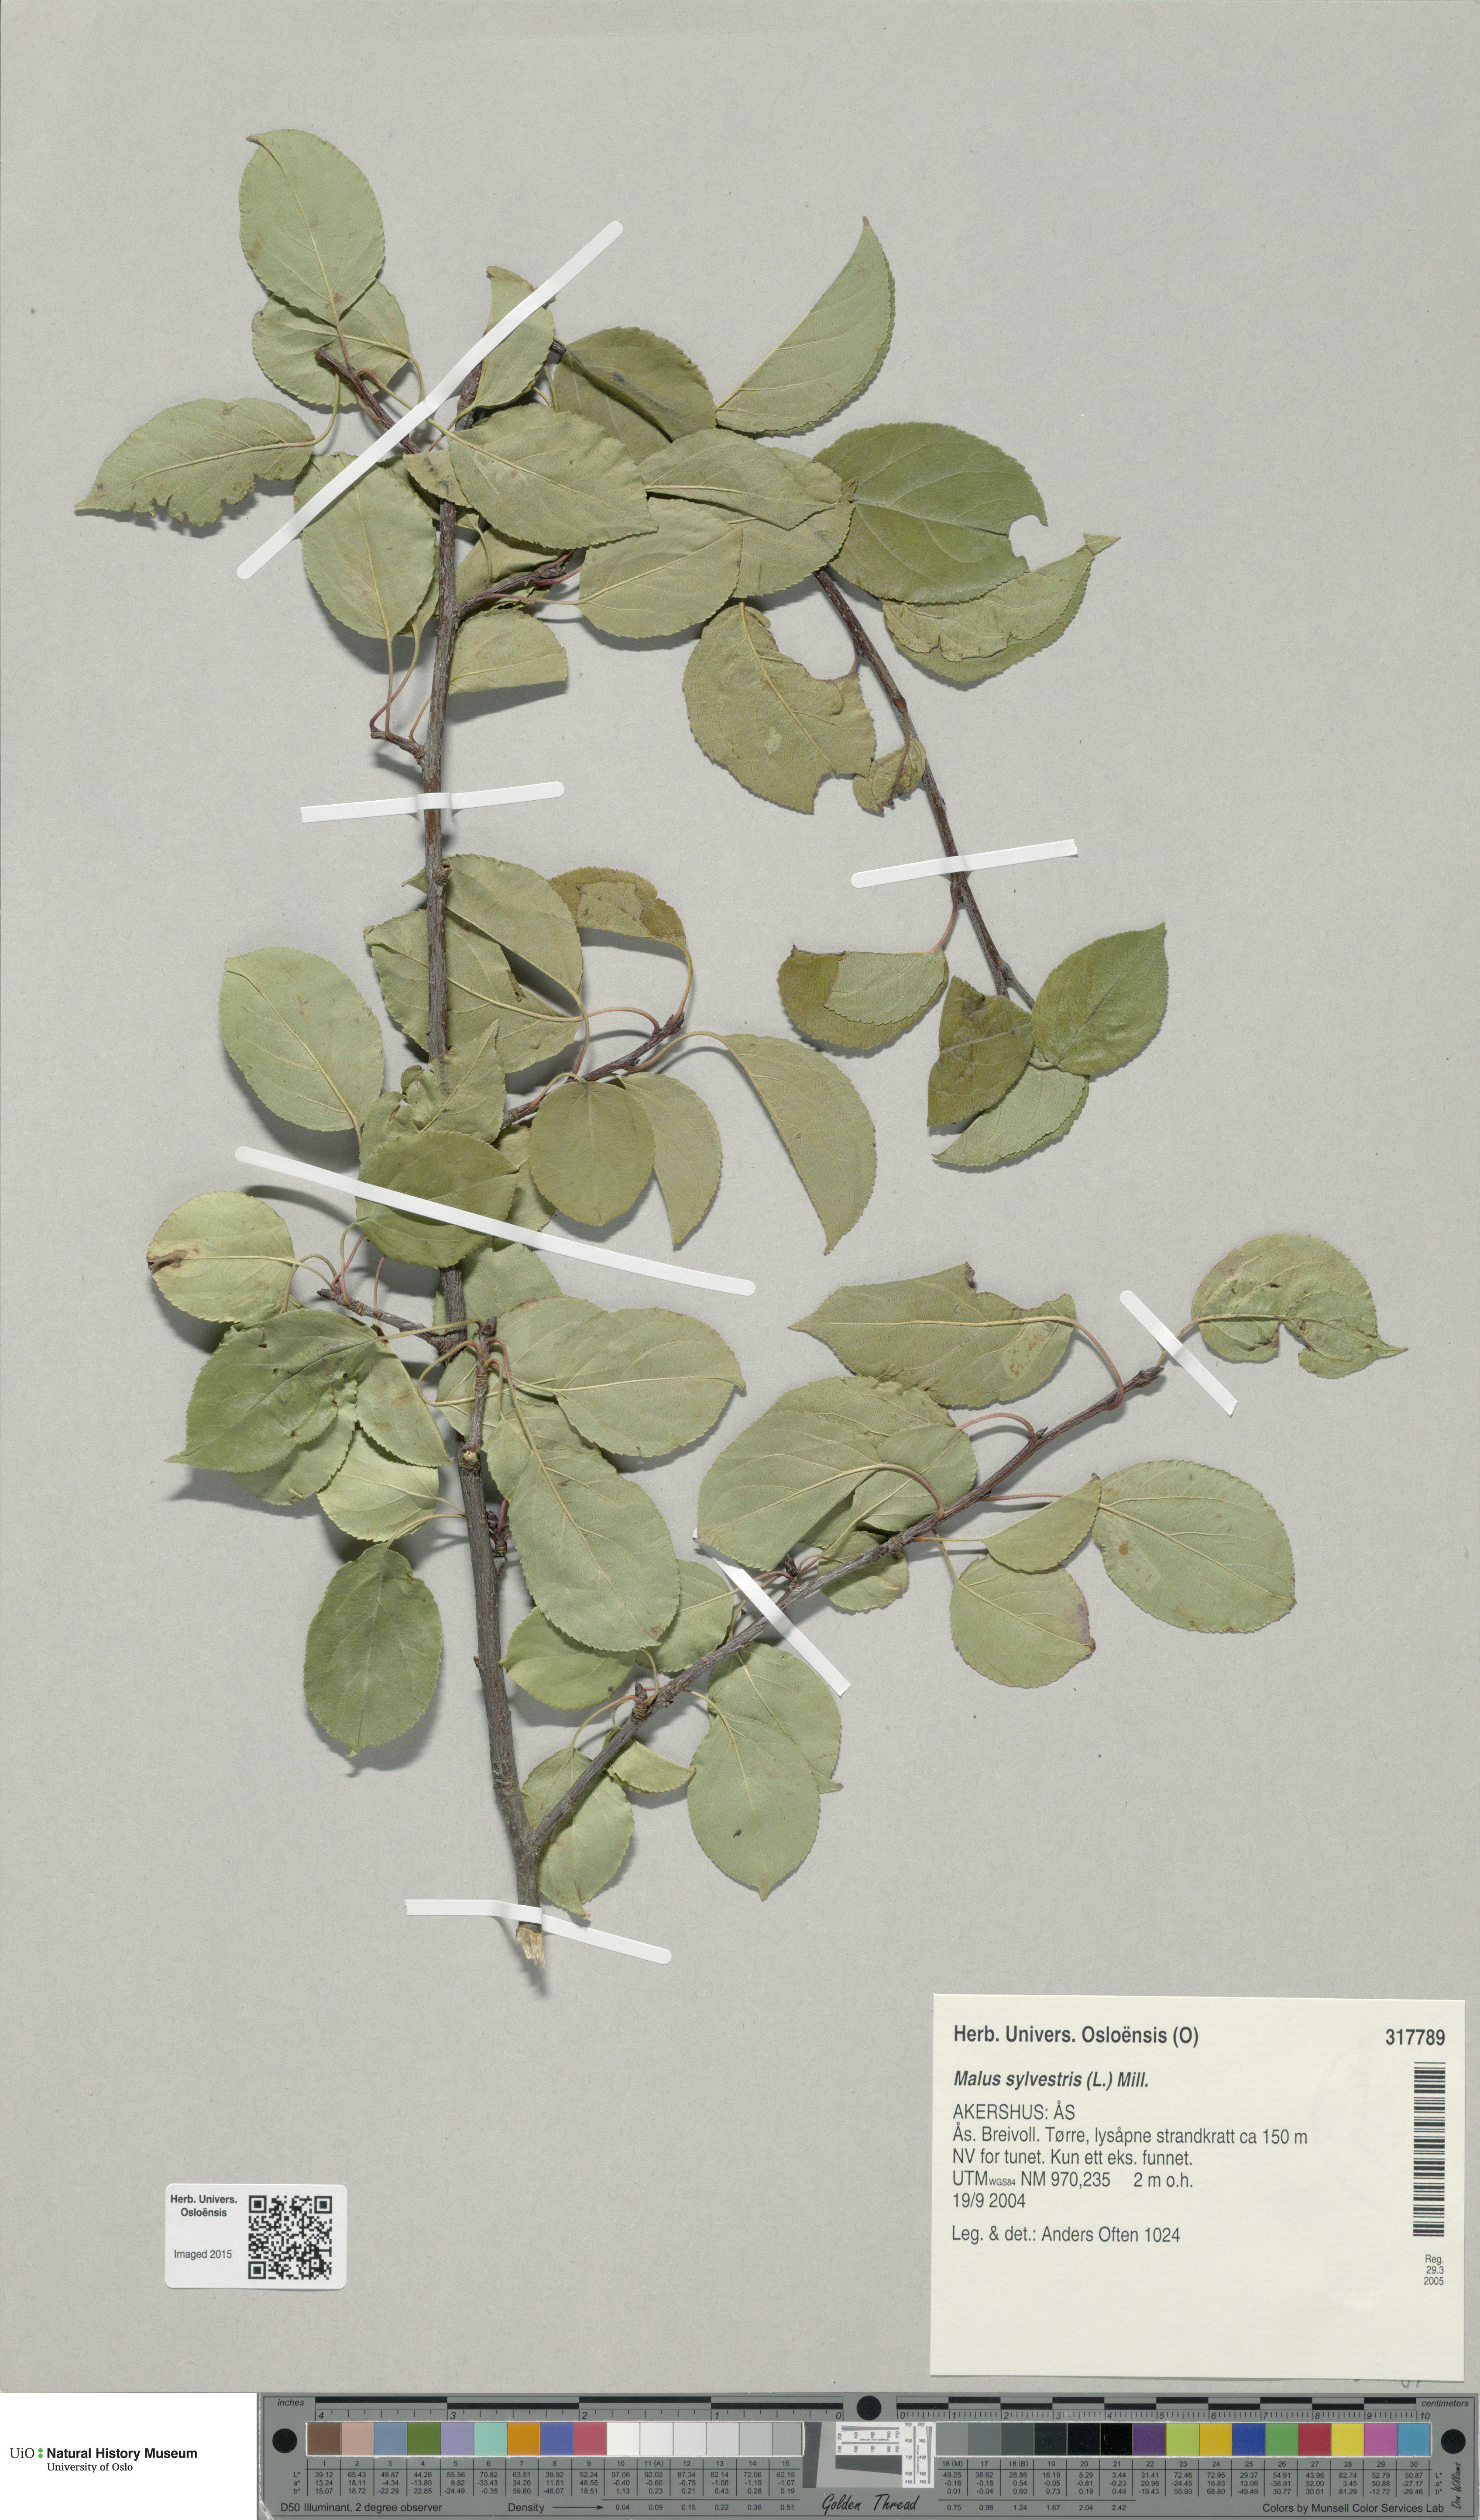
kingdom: Plantae
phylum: Tracheophyta
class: Magnoliopsida
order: Rosales
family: Rosaceae
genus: Malus
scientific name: Malus sylvestris
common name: Crab apple
